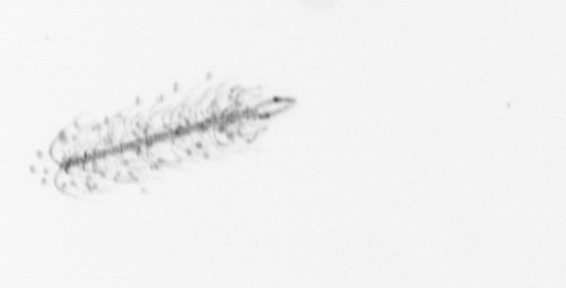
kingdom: Chromista
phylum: Ochrophyta
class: Bacillariophyceae
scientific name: Bacillariophyceae
